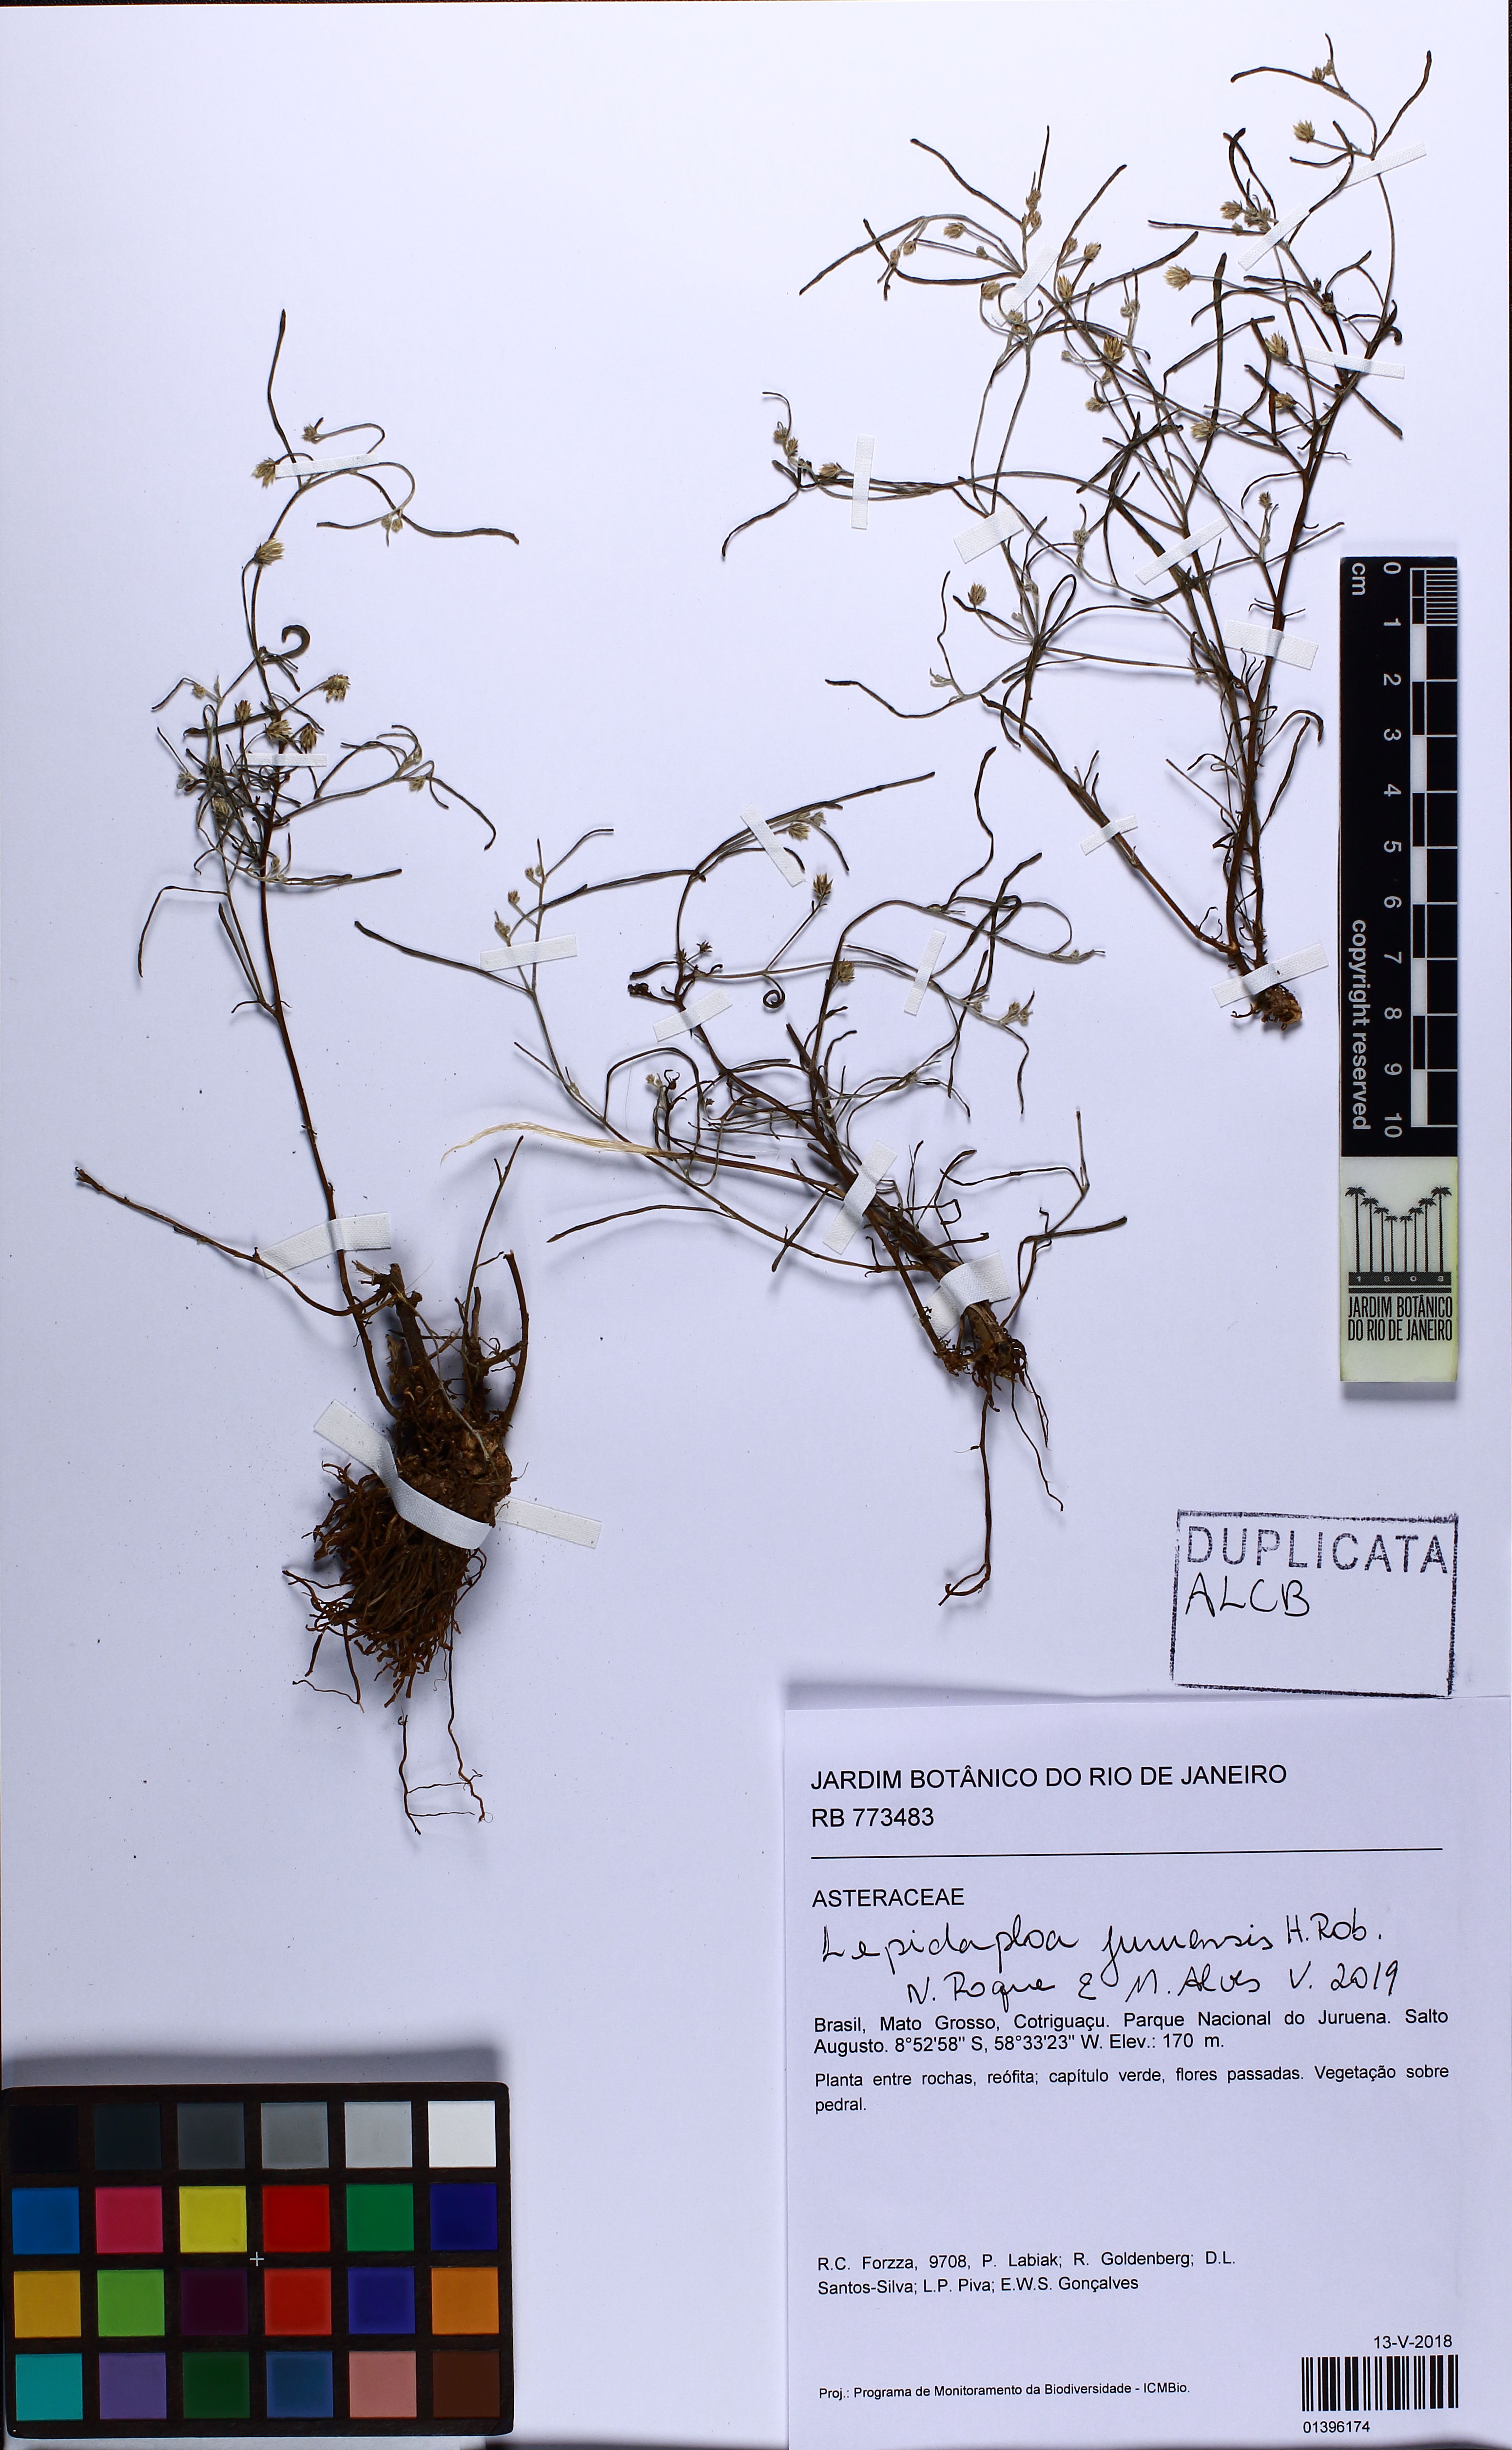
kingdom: Plantae
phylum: Tracheophyta
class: Magnoliopsida
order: Asterales
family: Asteraceae
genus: Lepidaploa
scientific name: Lepidaploa juruenensis
